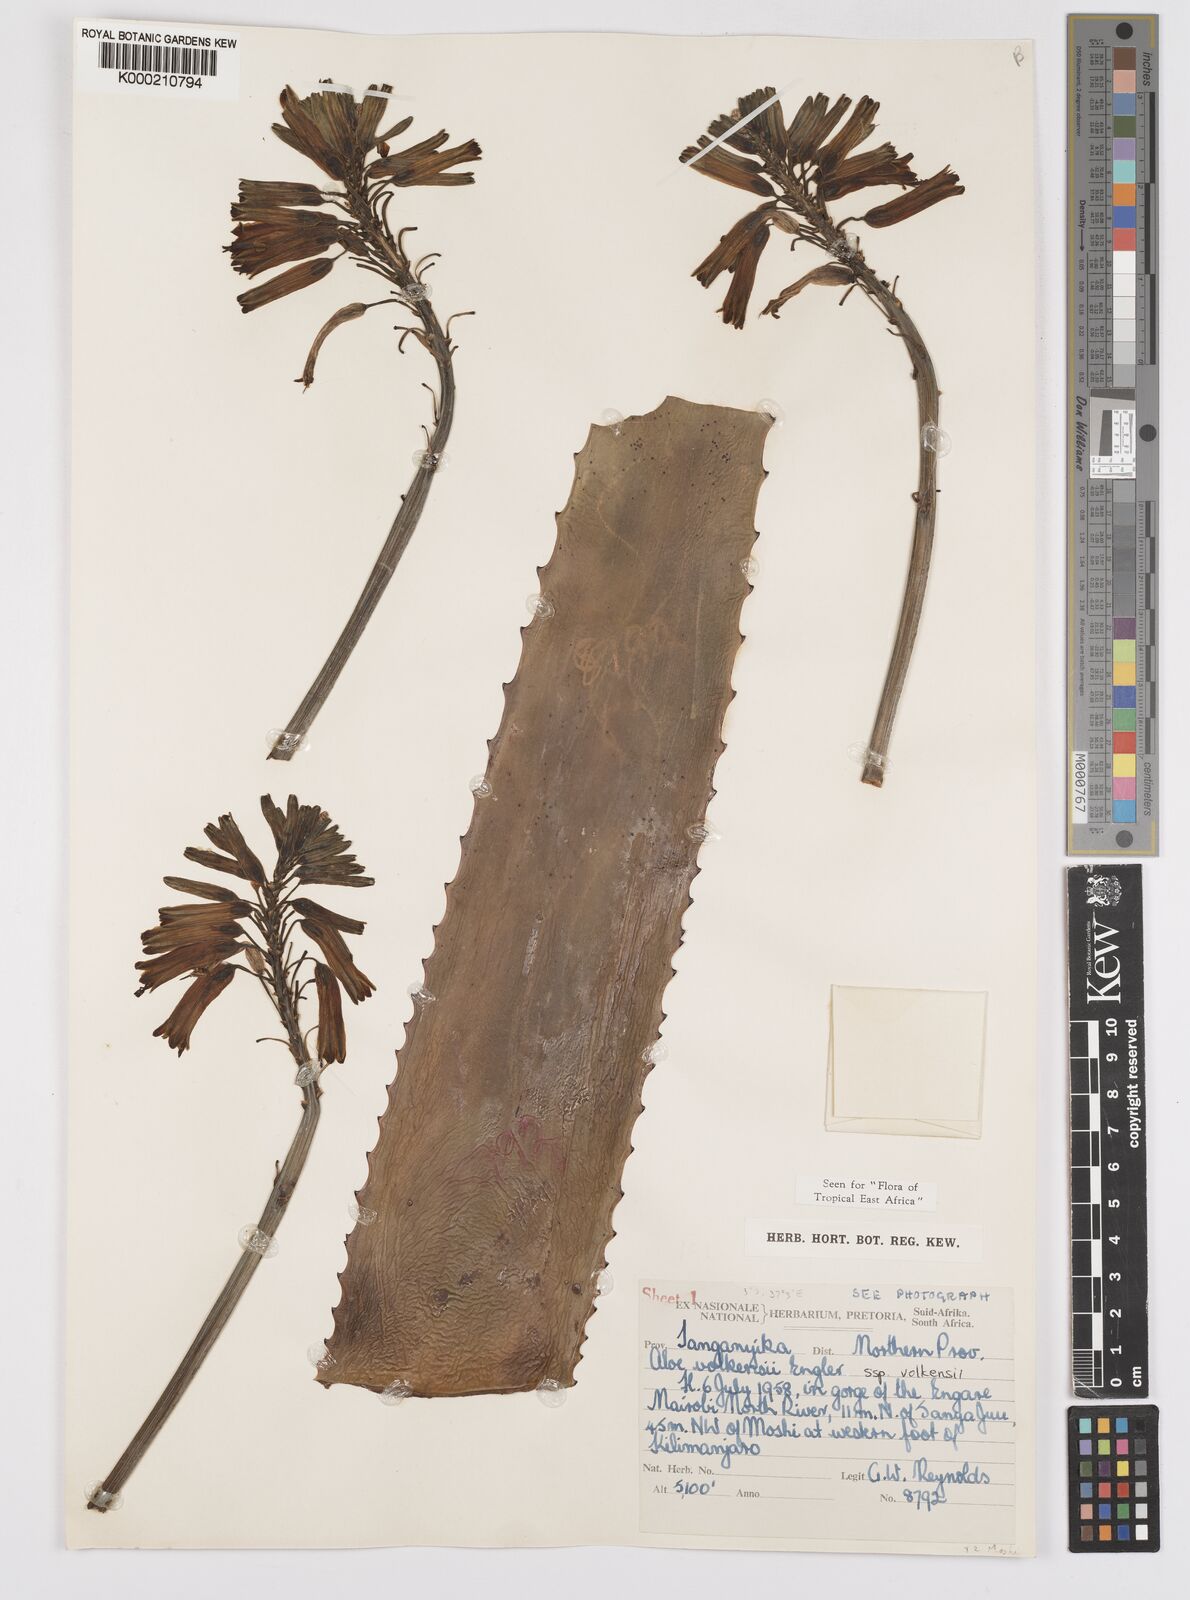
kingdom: Plantae
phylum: Tracheophyta
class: Liliopsida
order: Asparagales
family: Asphodelaceae
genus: Aloe
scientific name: Aloe volkensii
